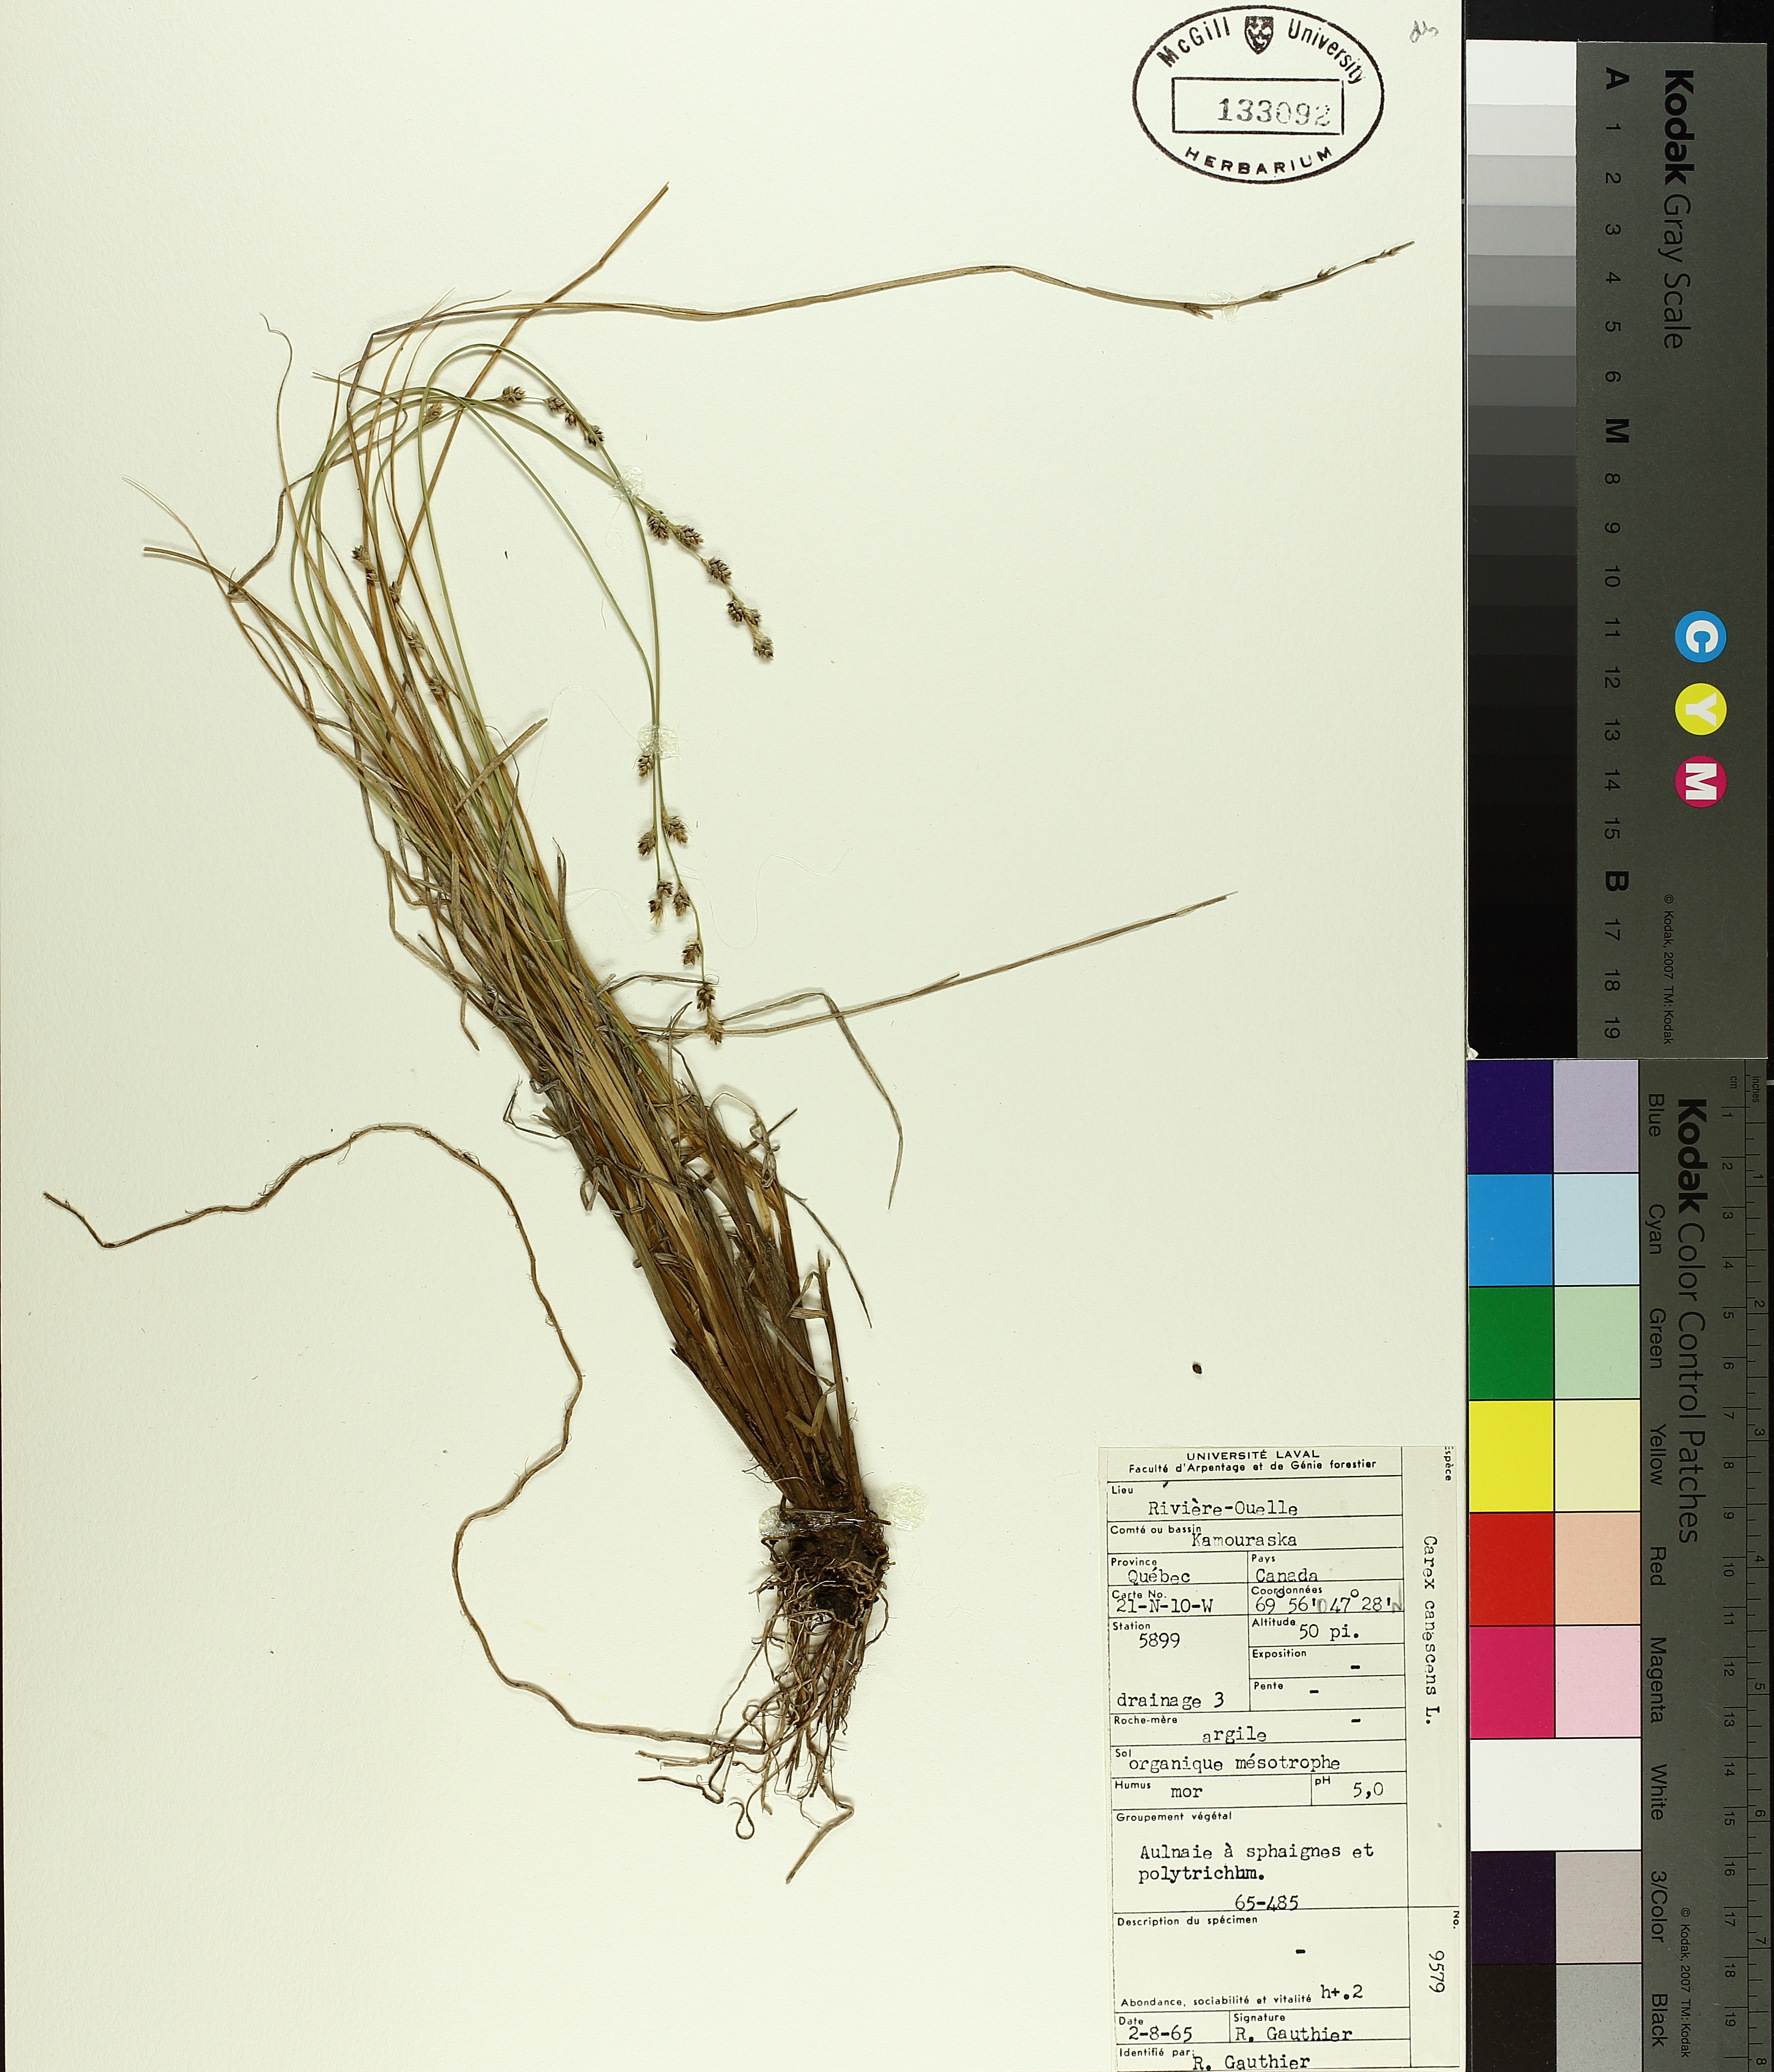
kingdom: Plantae
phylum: Tracheophyta
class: Liliopsida
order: Poales
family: Cyperaceae
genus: Carex
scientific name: Carex canescens
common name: White sedge
